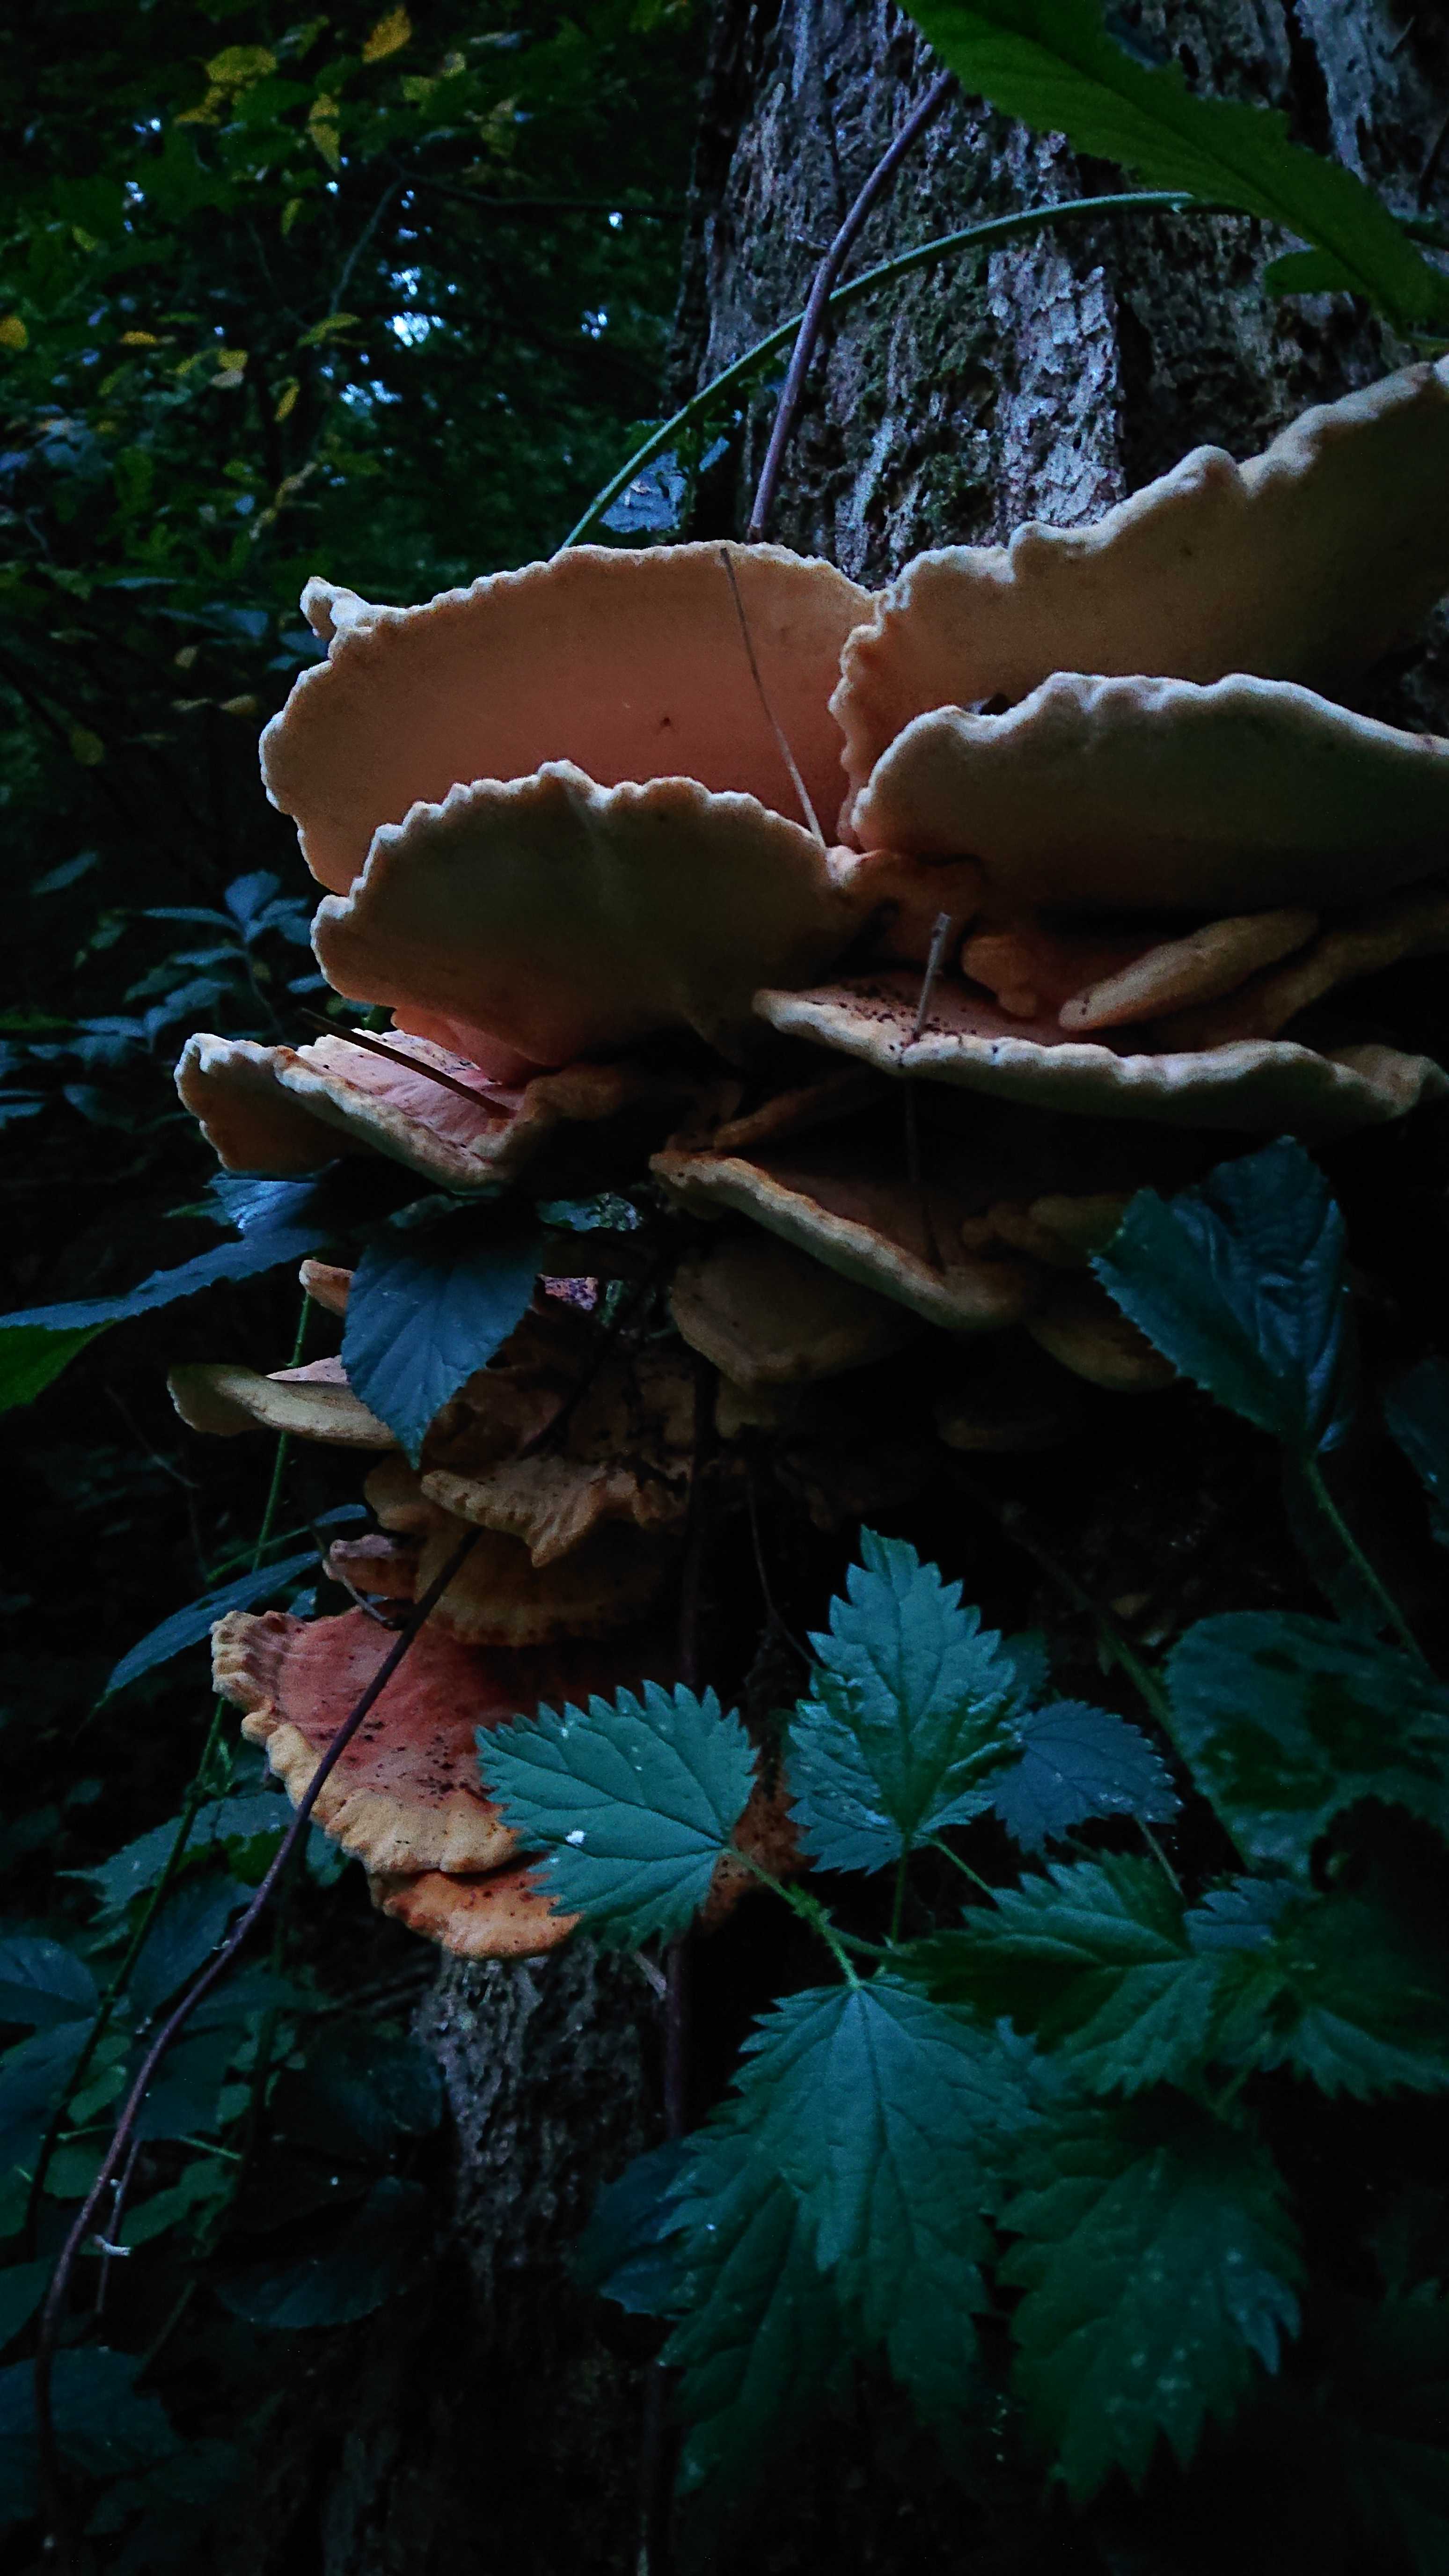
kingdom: Fungi
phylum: Basidiomycota
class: Agaricomycetes
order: Polyporales
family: Laetiporaceae
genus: Laetiporus
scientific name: Laetiporus sulphureus
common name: svovlporesvamp
